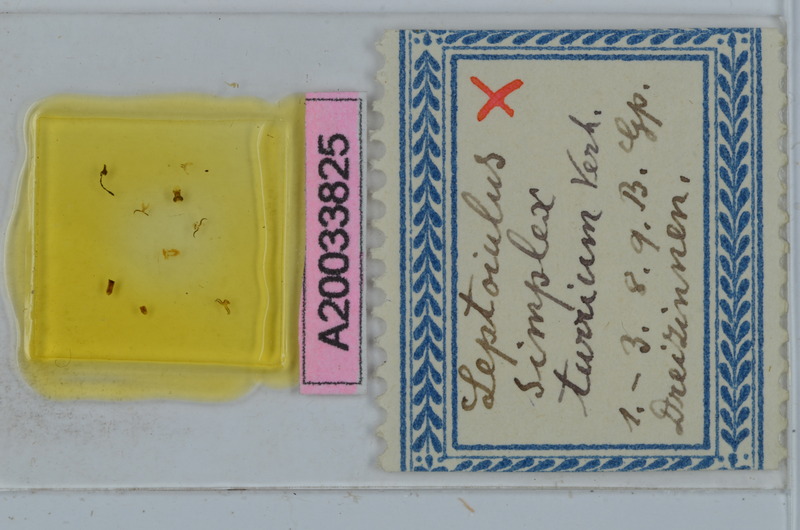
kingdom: Animalia
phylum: Arthropoda
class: Diplopoda
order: Julida
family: Julidae
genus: Leptoiulus
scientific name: Leptoiulus simplex
